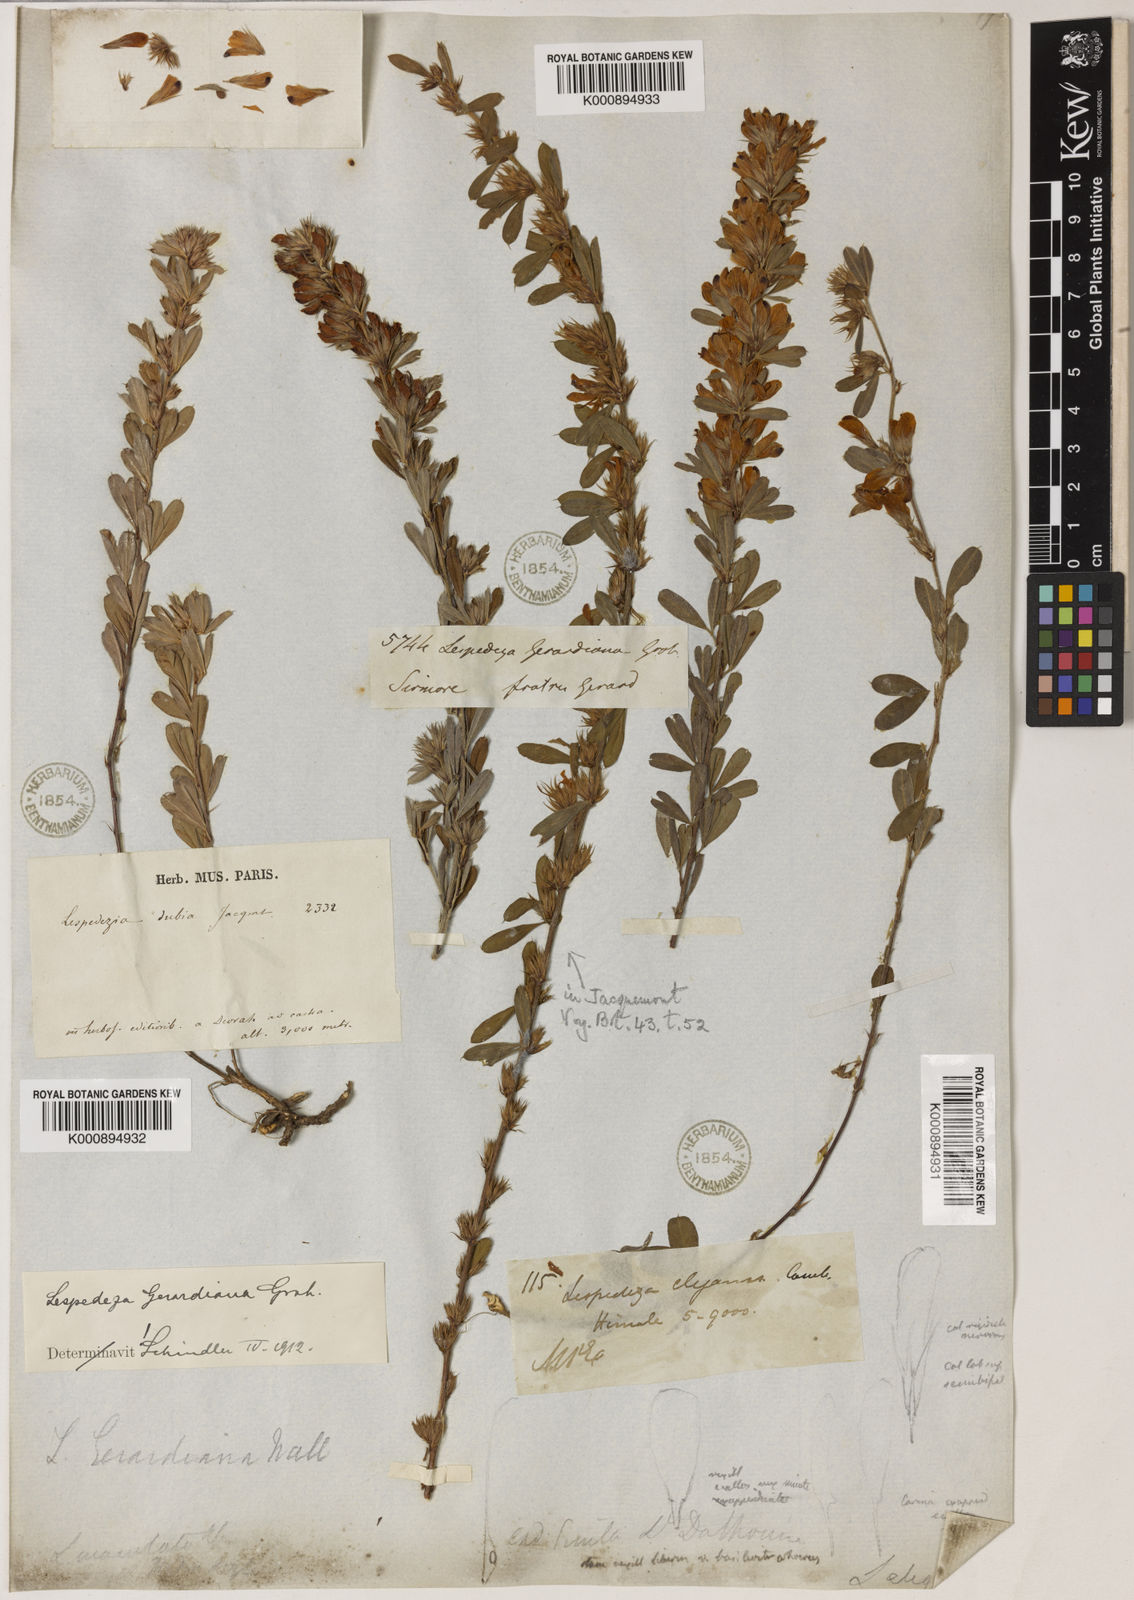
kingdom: Plantae
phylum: Tracheophyta
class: Magnoliopsida
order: Fabales
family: Fabaceae
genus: Lespedeza
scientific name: Lespedeza
